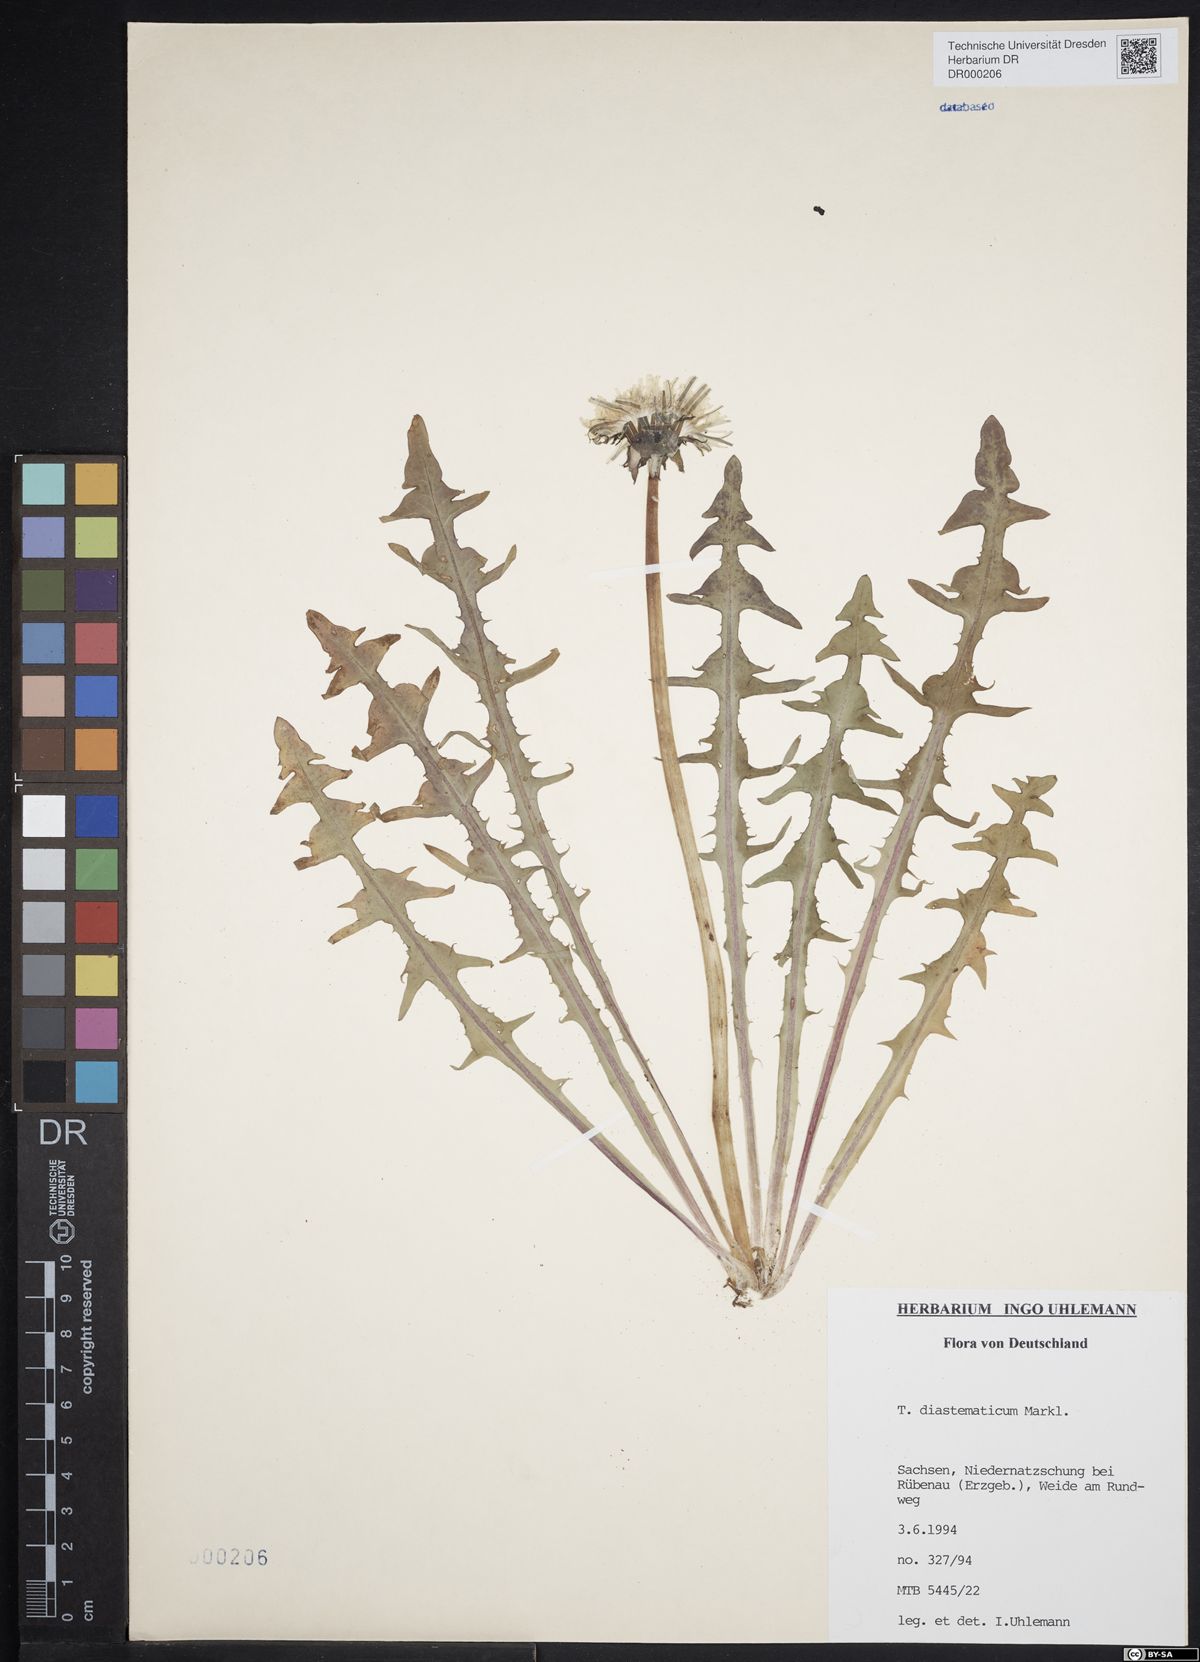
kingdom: Plantae
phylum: Tracheophyta
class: Magnoliopsida
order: Asterales
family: Asteraceae
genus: Taraxacum
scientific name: Taraxacum diastematicum
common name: Bulbous-lobed dandelion
